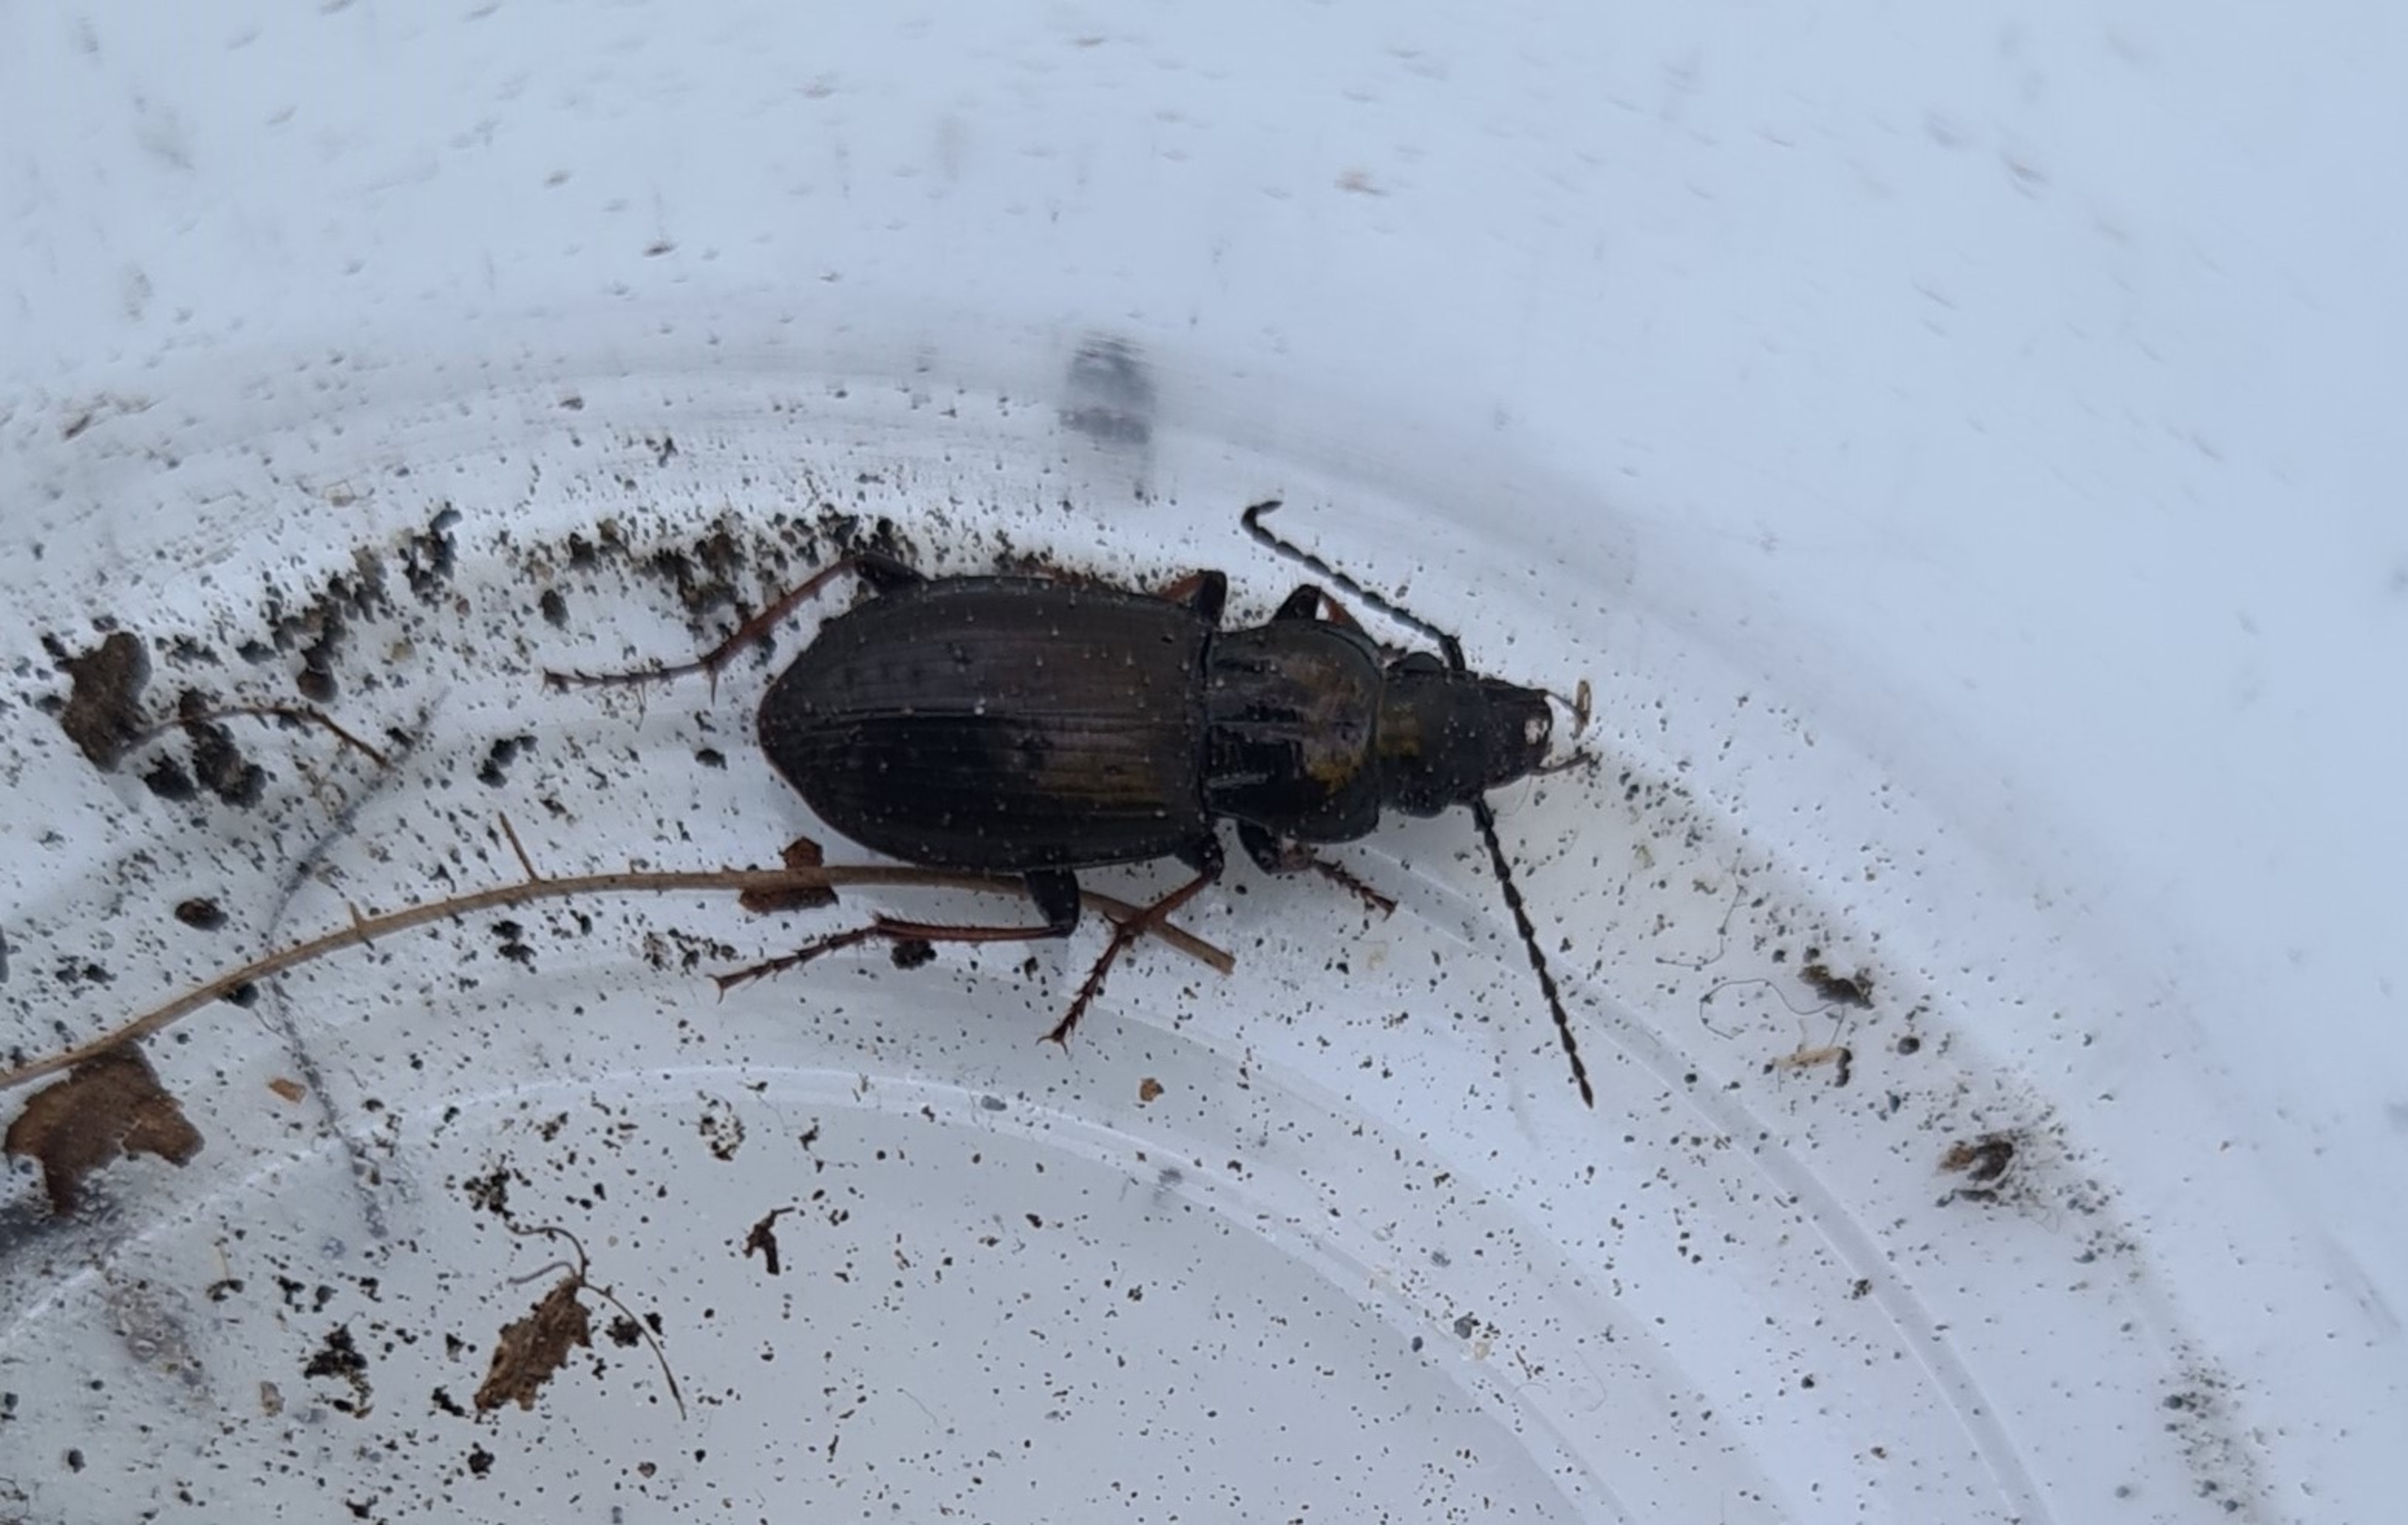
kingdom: Animalia
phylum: Arthropoda
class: Insecta
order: Coleoptera
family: Carabidae
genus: Pterostichus
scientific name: Pterostichus oblongopunctatus
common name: Bronzejordløber
